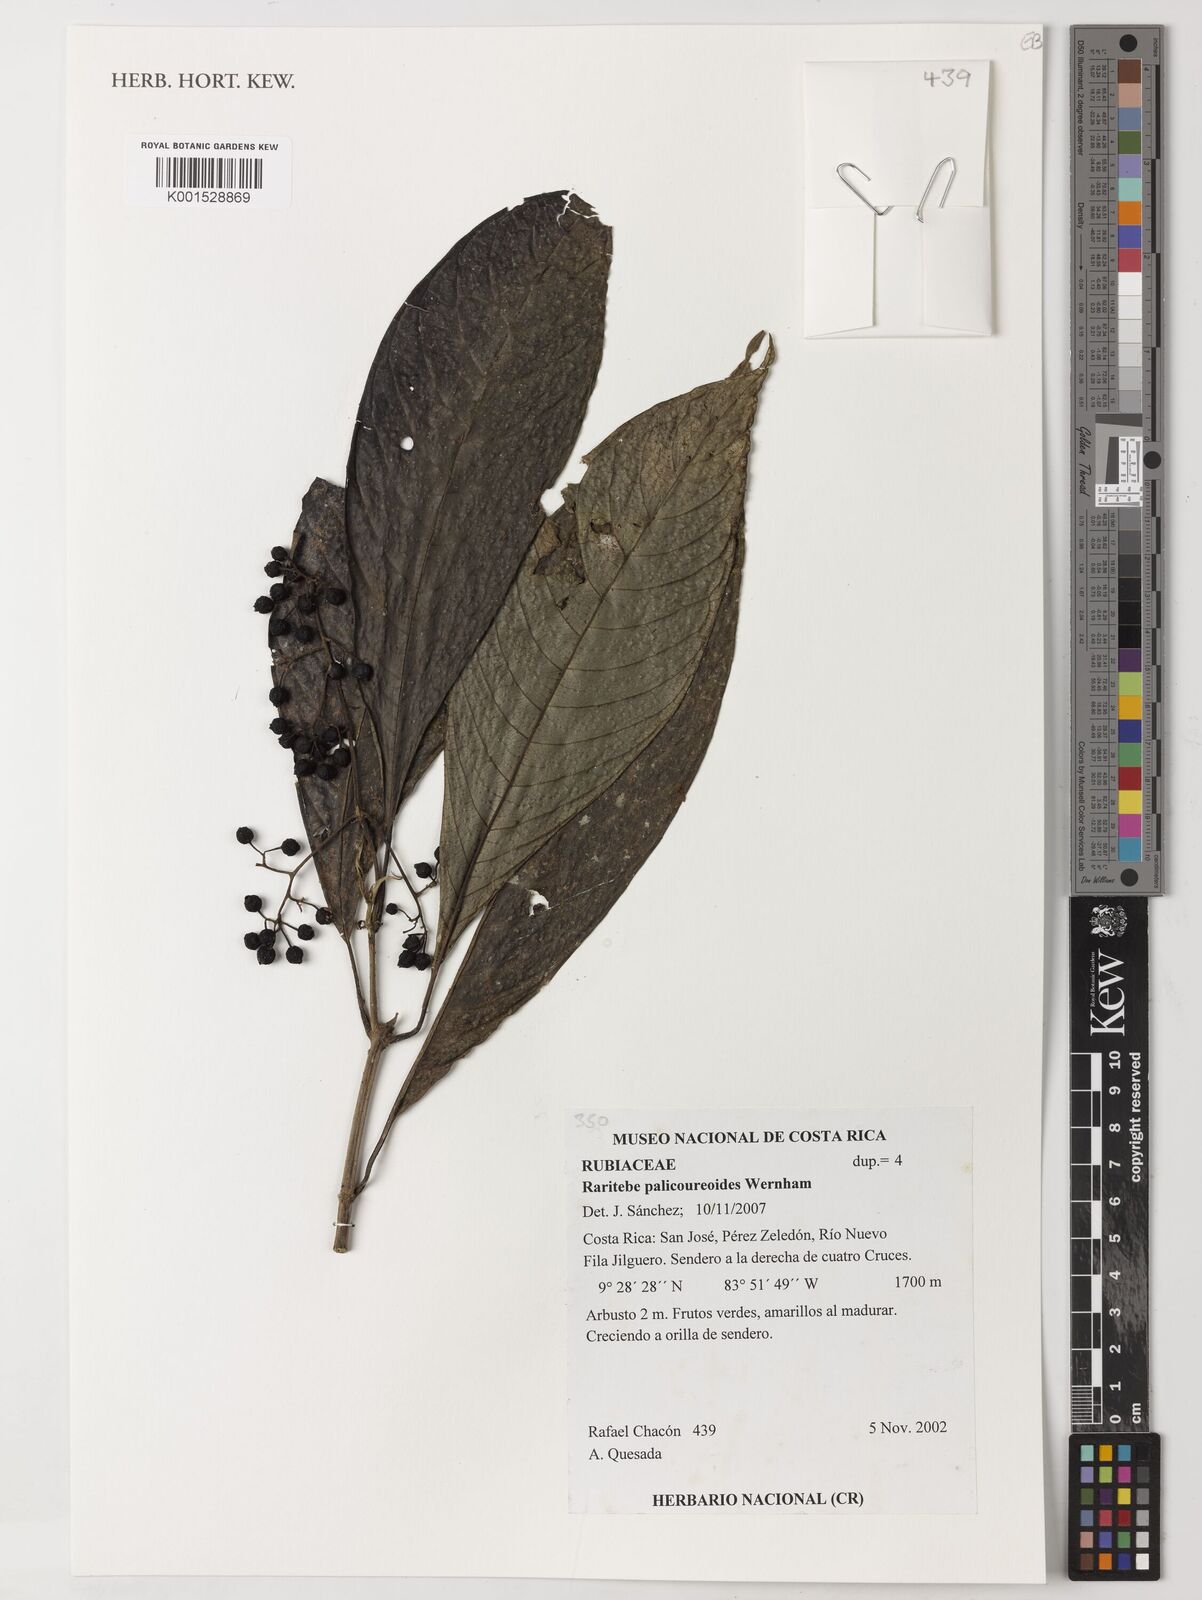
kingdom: Plantae
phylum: Tracheophyta
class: Magnoliopsida
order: Gentianales
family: Rubiaceae
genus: Raritebe
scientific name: Raritebe palicoureoides
